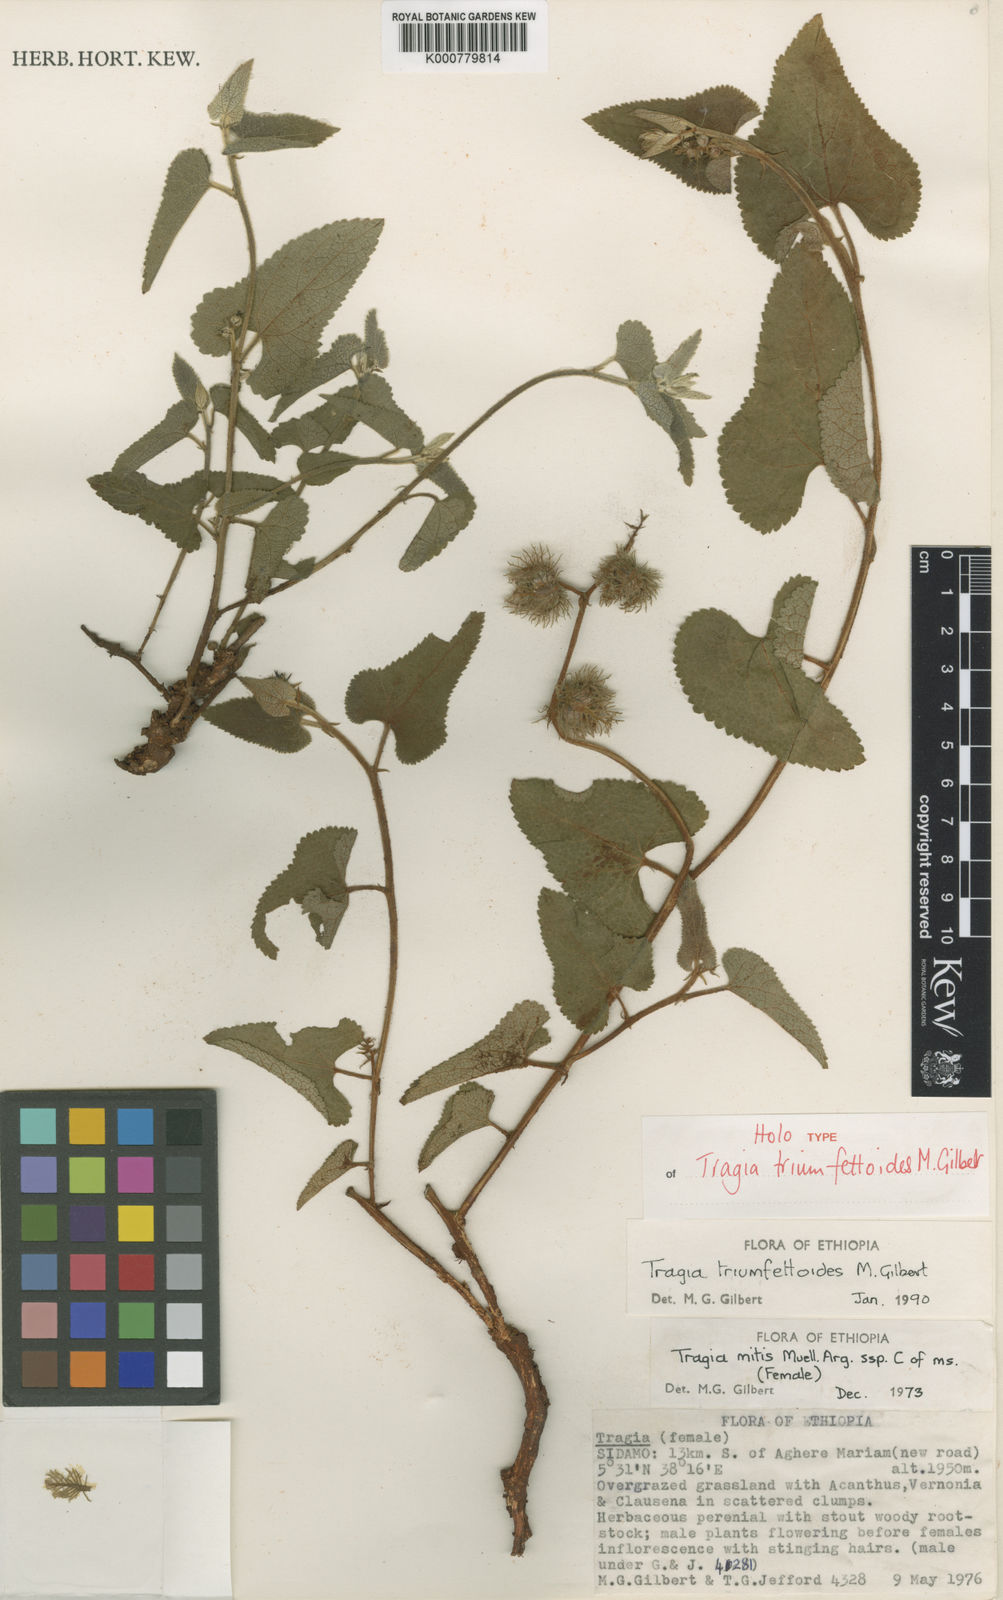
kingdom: Plantae
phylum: Tracheophyta
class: Magnoliopsida
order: Malpighiales
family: Euphorbiaceae
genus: Tragia
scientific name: Tragia triumfetoides
